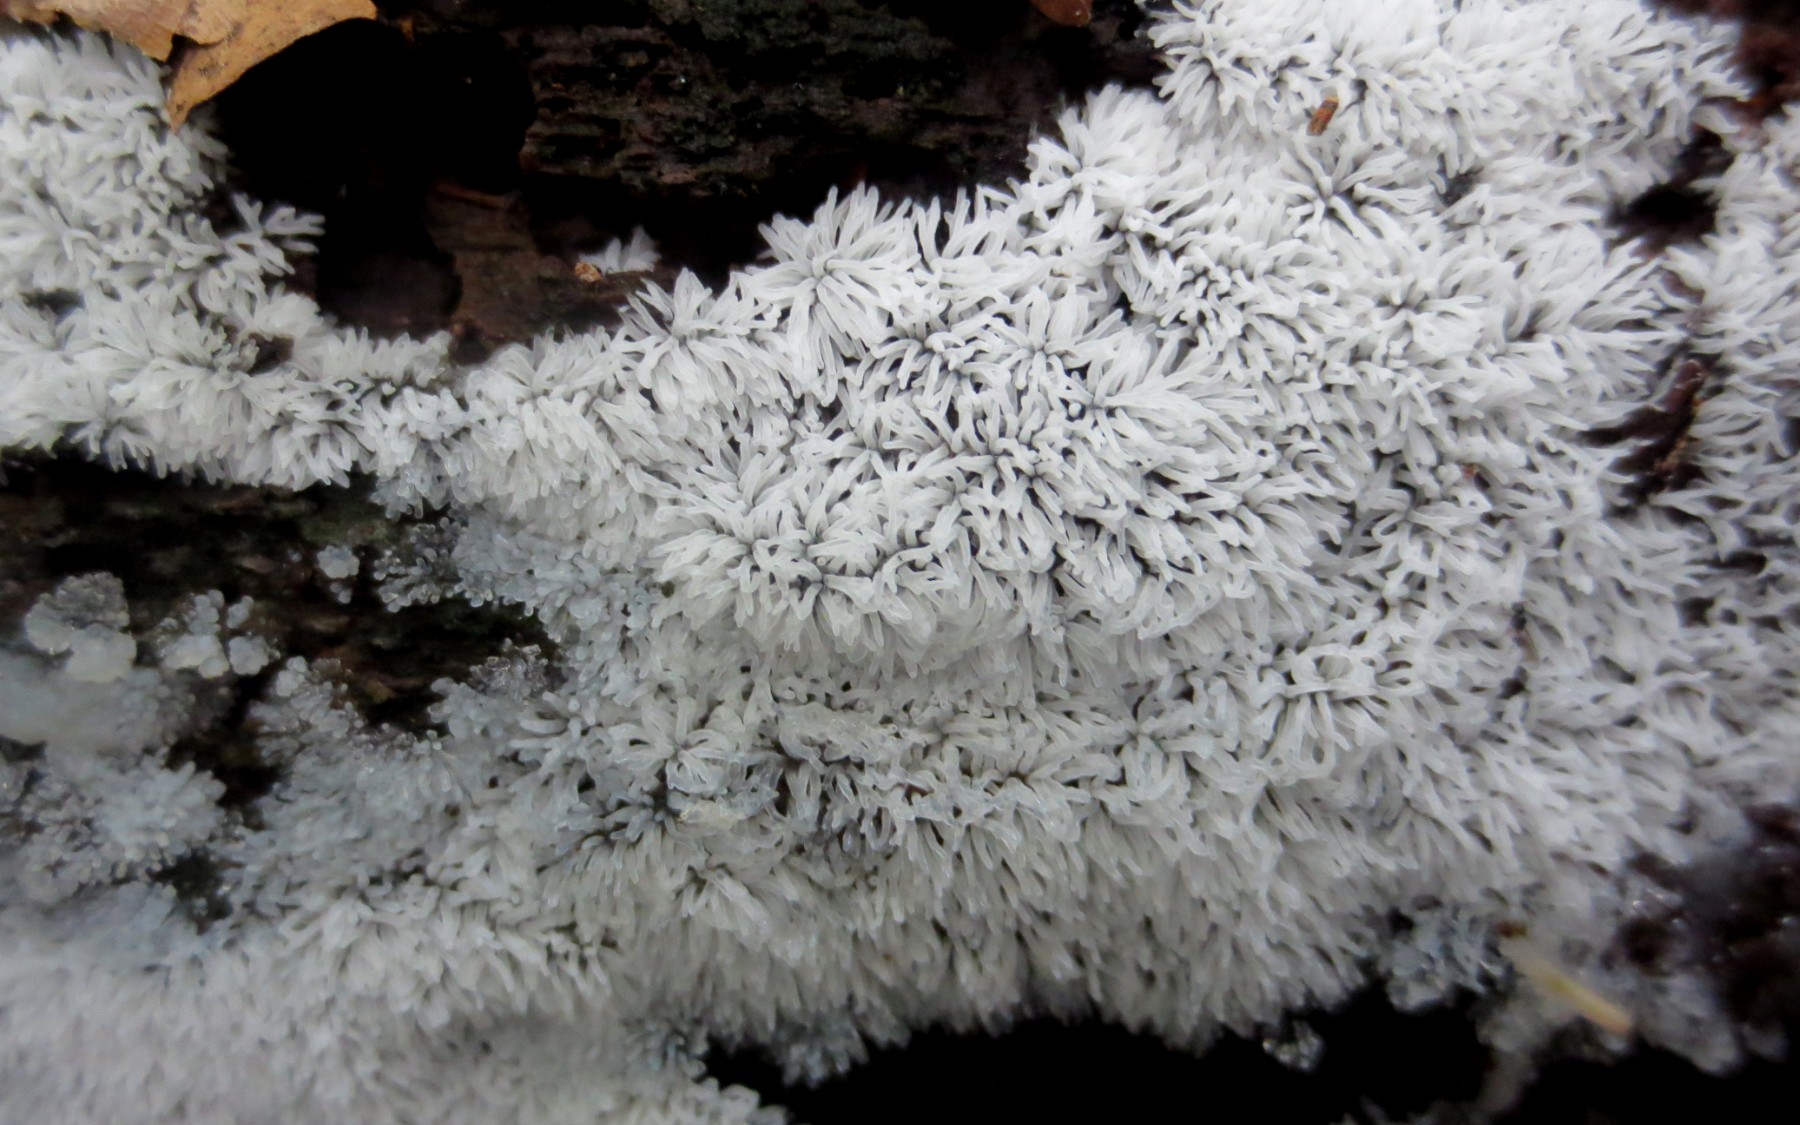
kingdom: Protozoa
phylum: Mycetozoa
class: Protosteliomycetes
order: Ceratiomyxales
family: Ceratiomyxaceae
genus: Ceratiomyxa
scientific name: Ceratiomyxa fruticulosa
